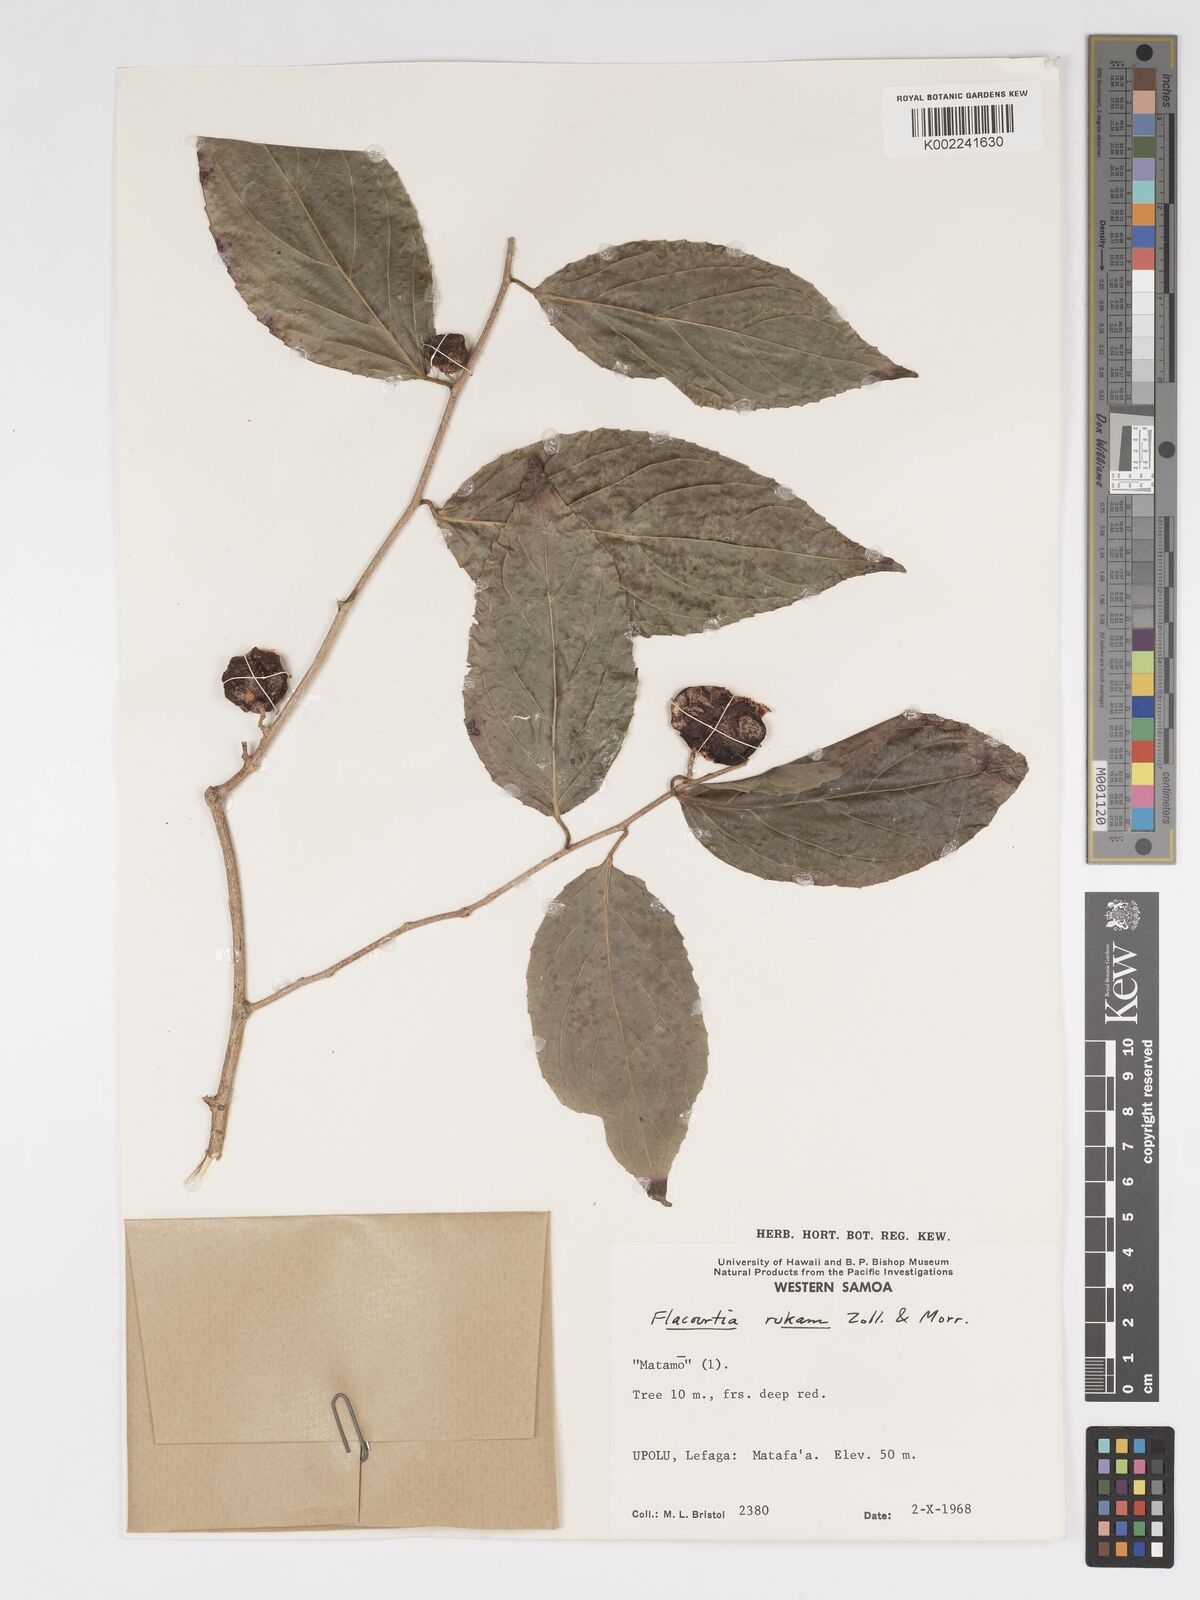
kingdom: Plantae
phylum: Tracheophyta
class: Magnoliopsida
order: Malpighiales
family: Salicaceae
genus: Flacourtia
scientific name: Flacourtia rukam
